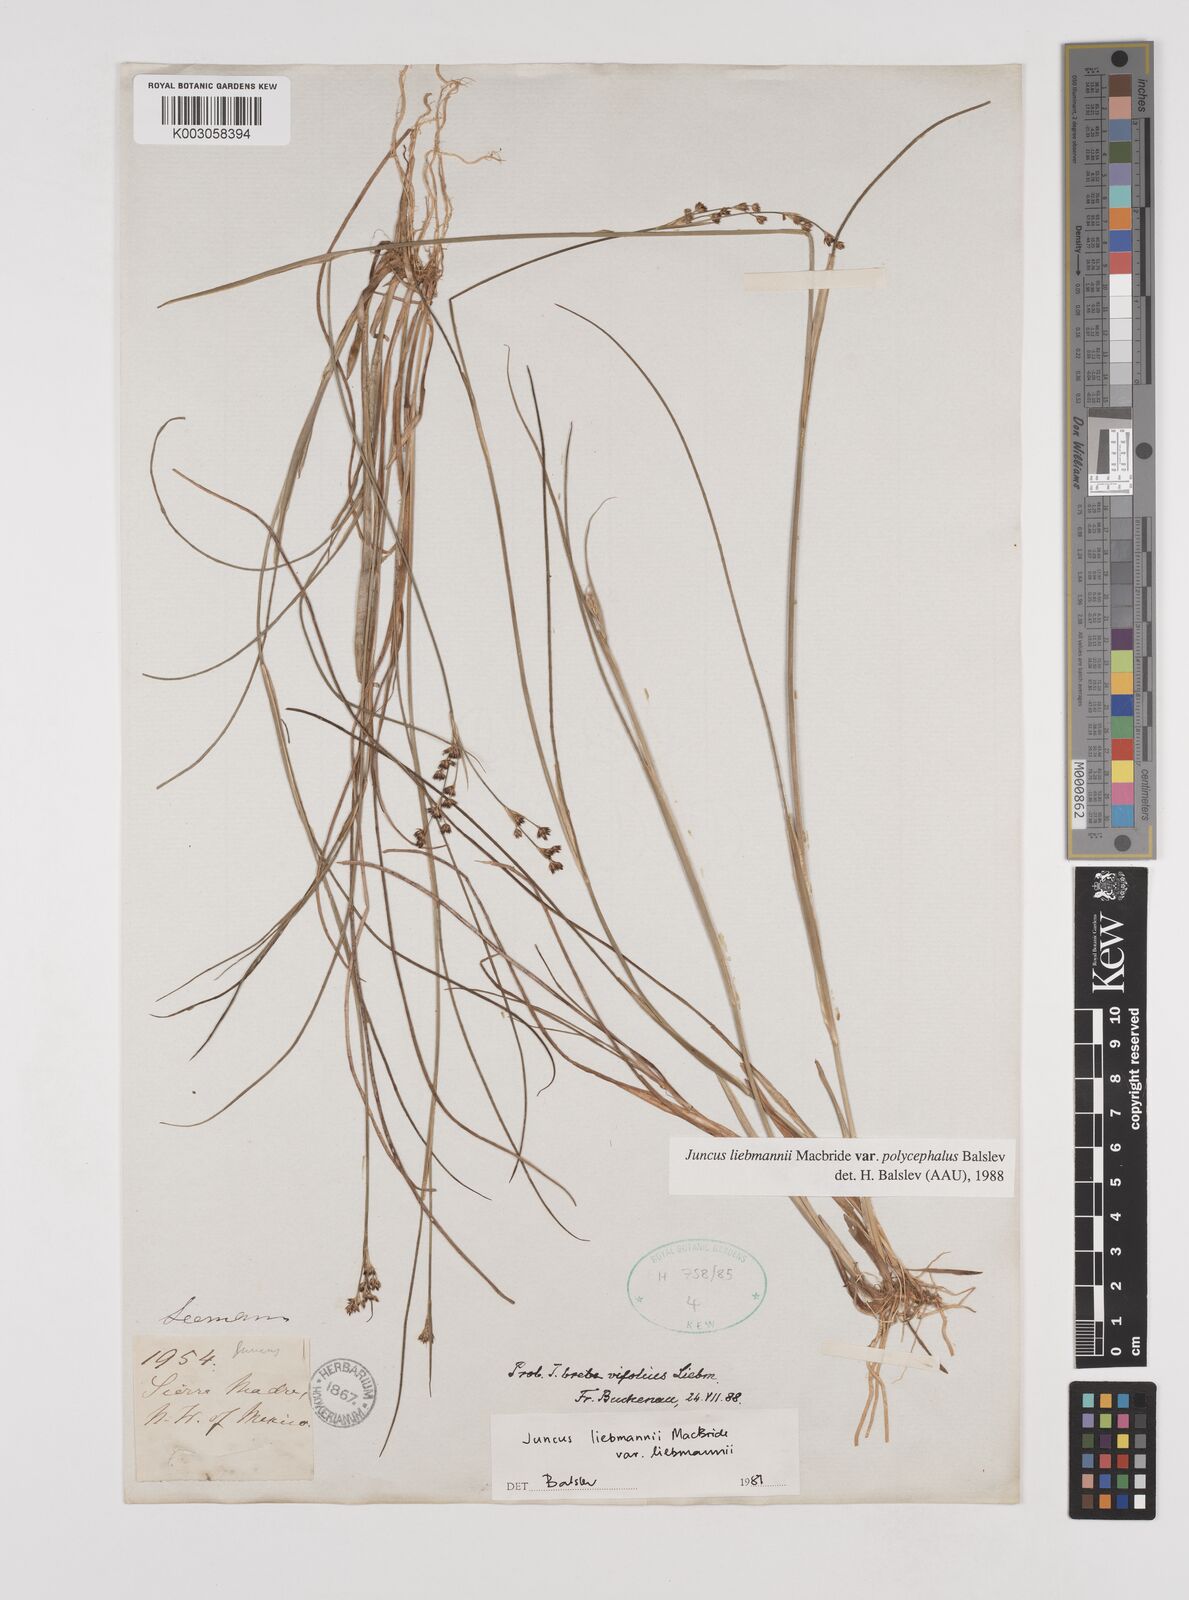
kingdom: Plantae
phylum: Tracheophyta
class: Liliopsida
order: Poales
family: Juncaceae
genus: Juncus
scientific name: Juncus liebmannii
